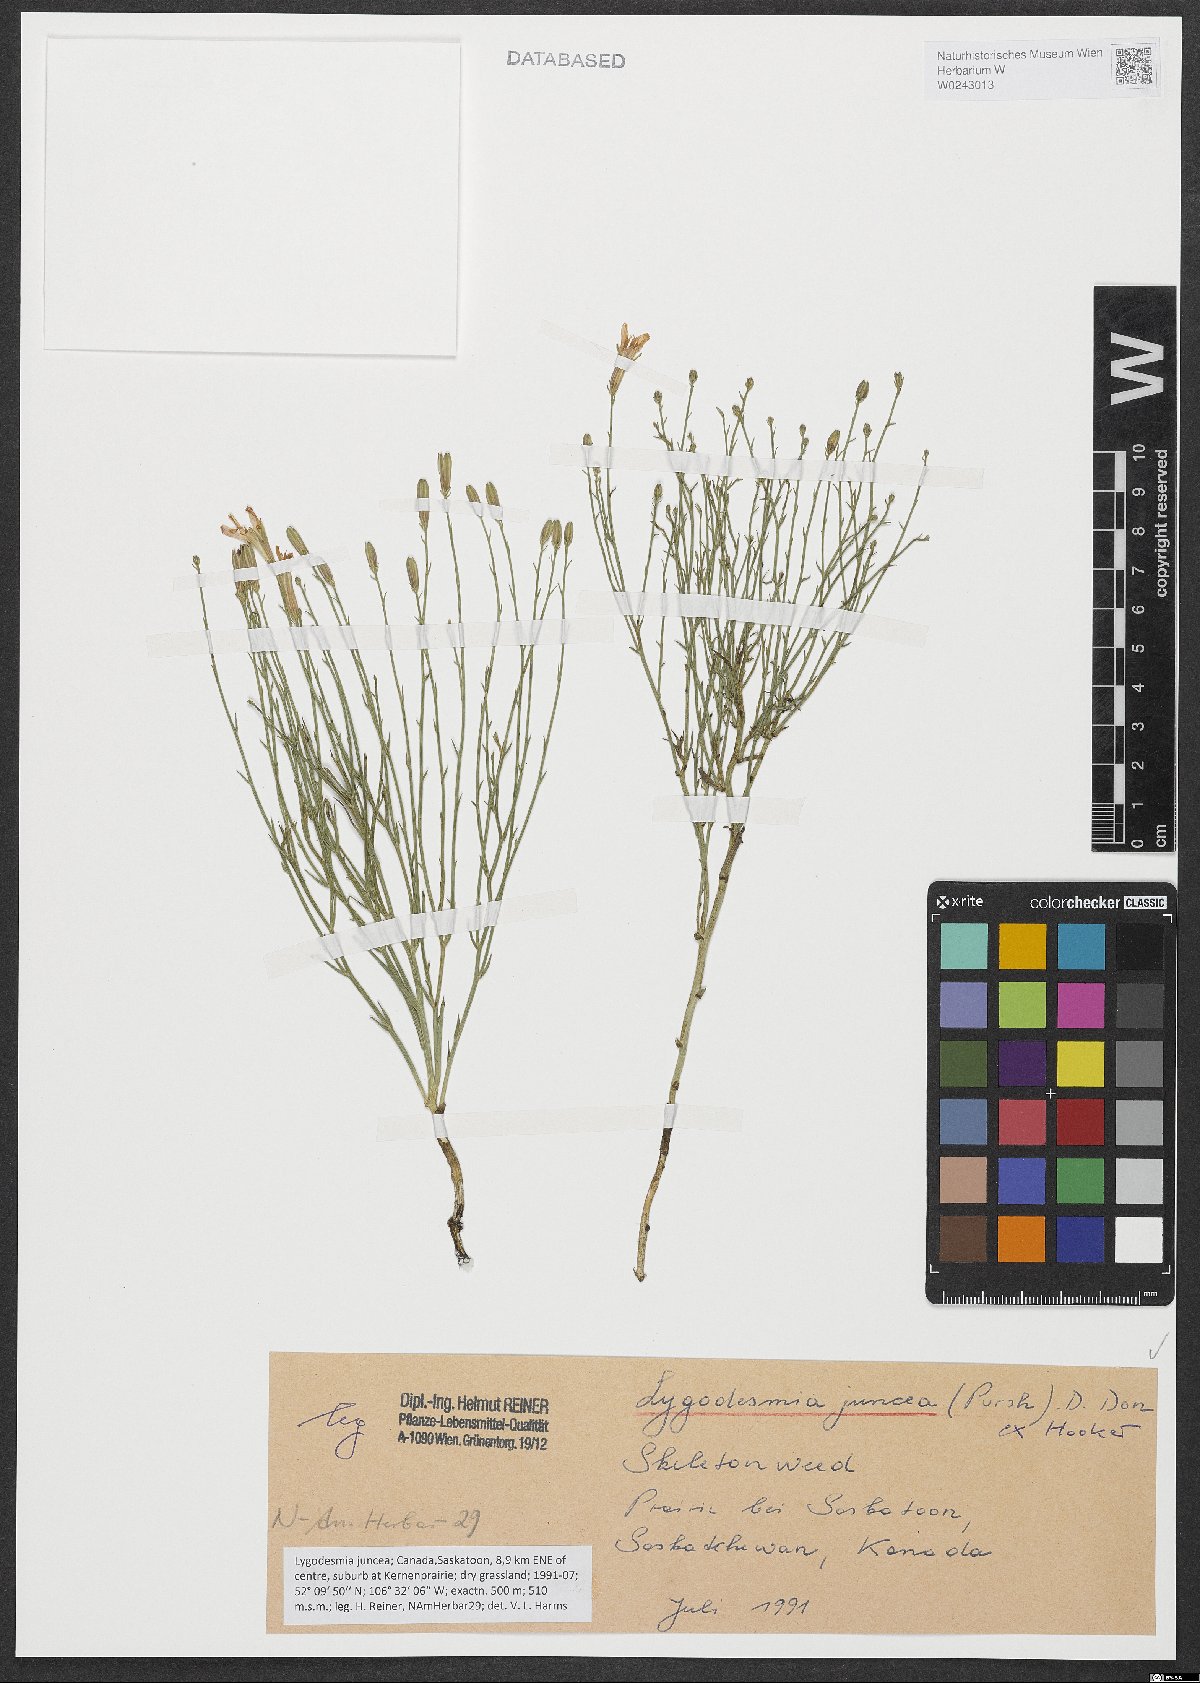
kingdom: Plantae
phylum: Tracheophyta
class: Magnoliopsida
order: Asterales
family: Asteraceae
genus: Lygodesmia
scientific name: Lygodesmia juncea
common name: Common skeletonweed
